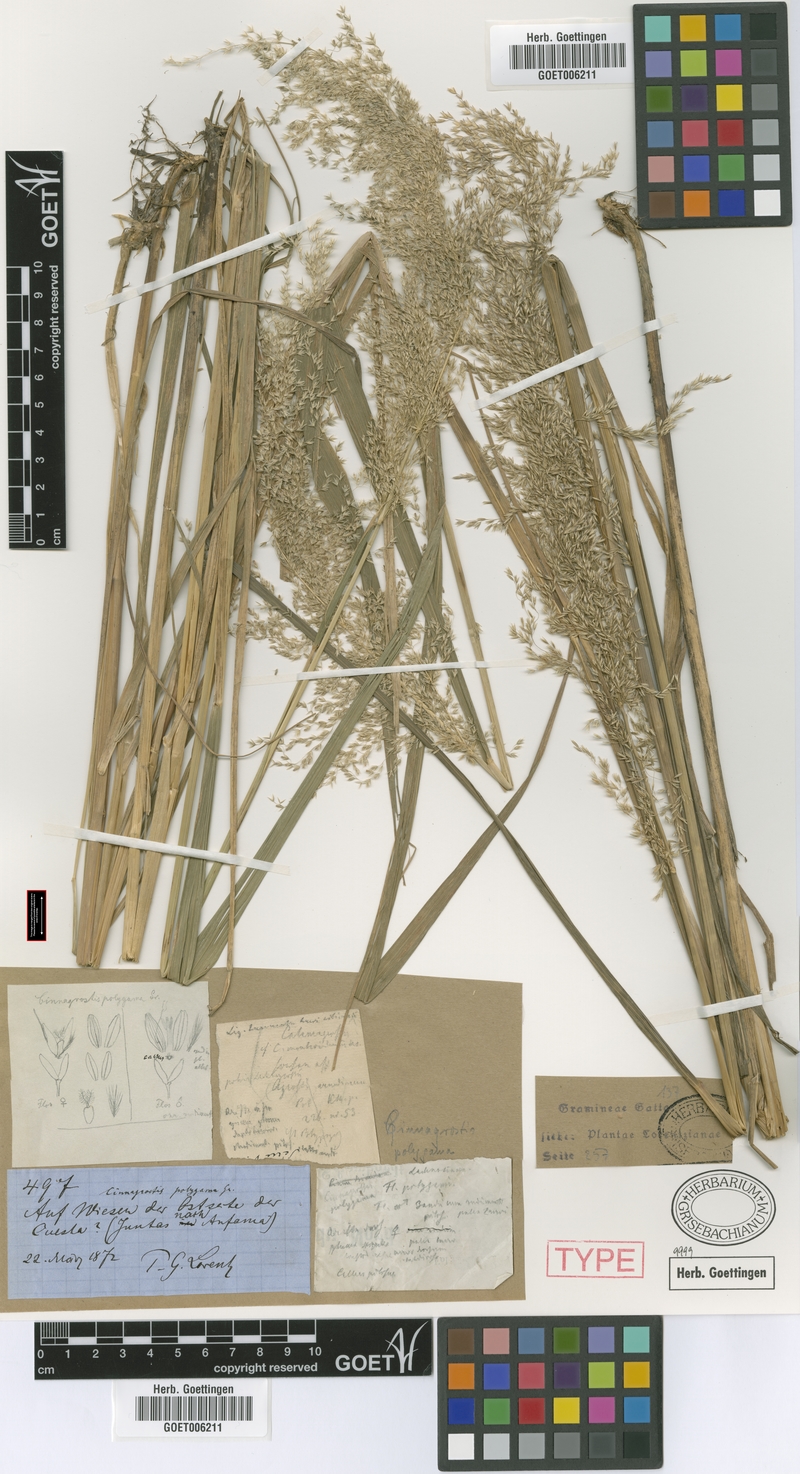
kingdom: Plantae
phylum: Tracheophyta
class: Liliopsida
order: Poales
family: Poaceae
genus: Cinnagrostis
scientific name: Cinnagrostis polygama
